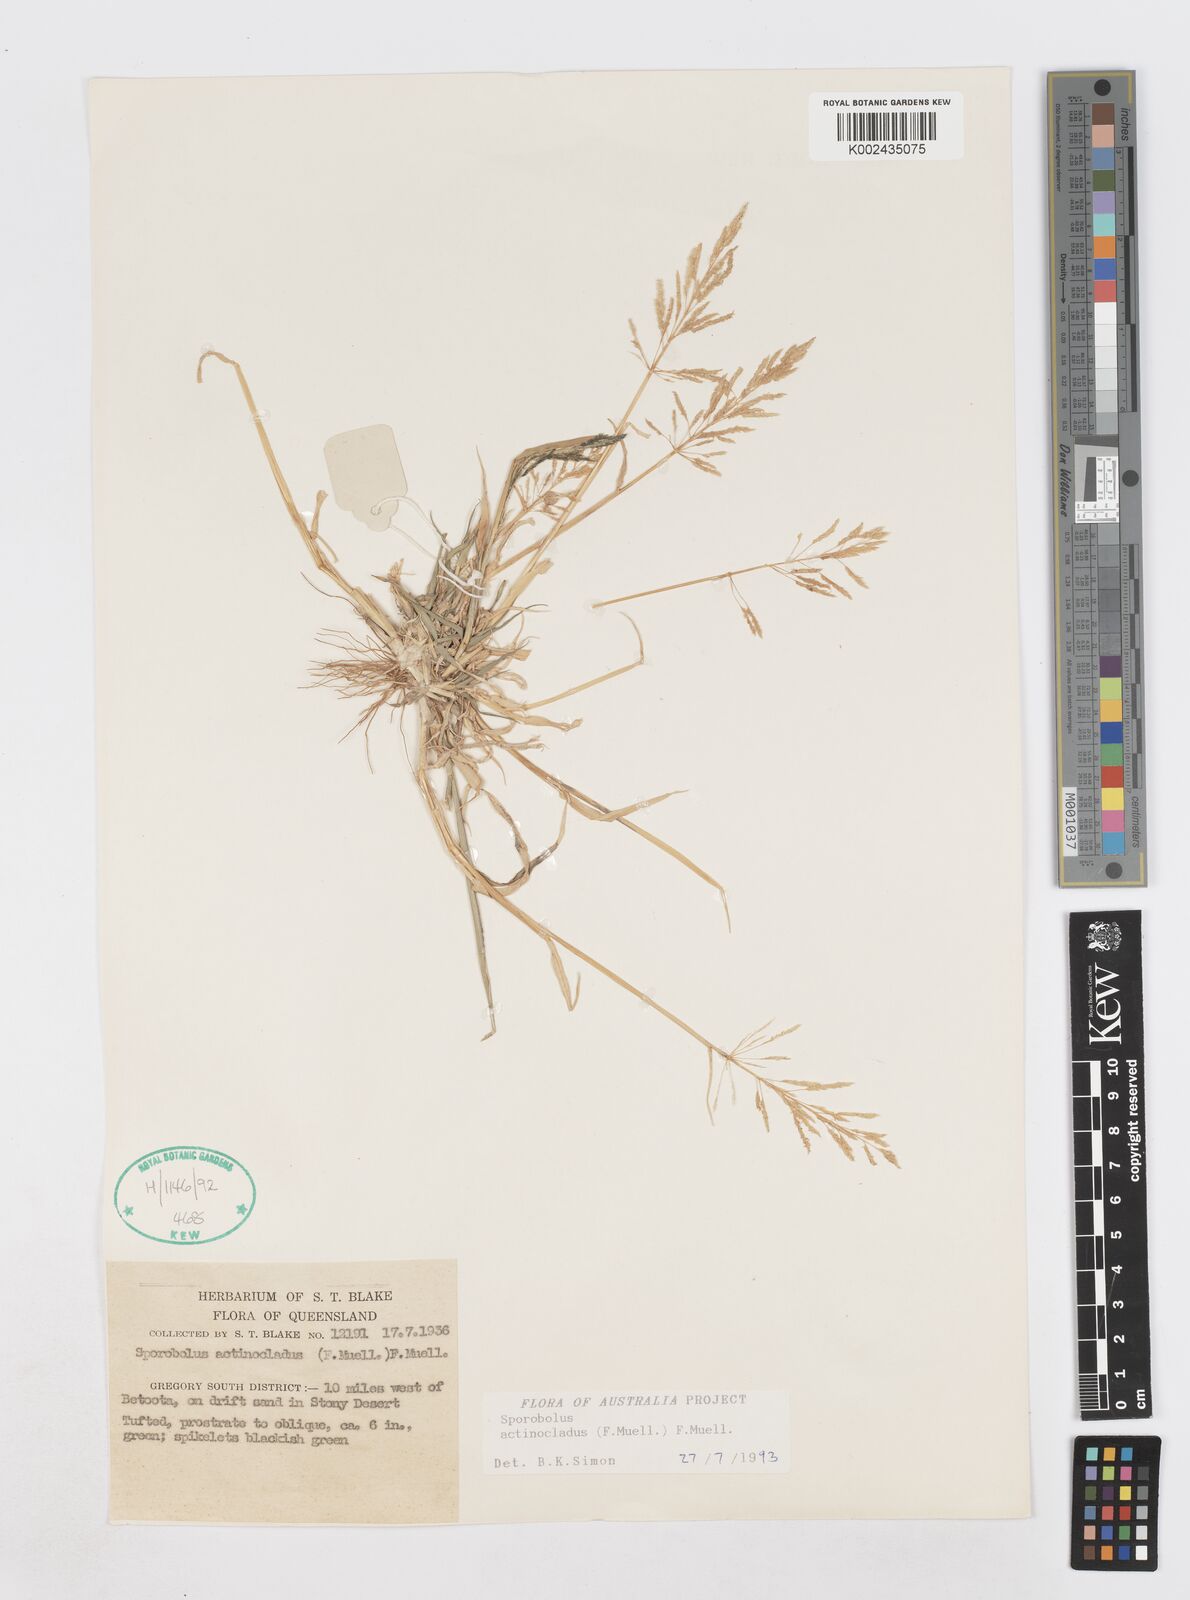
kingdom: Plantae
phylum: Tracheophyta
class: Liliopsida
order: Poales
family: Poaceae
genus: Sporobolus
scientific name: Sporobolus actinocladus
